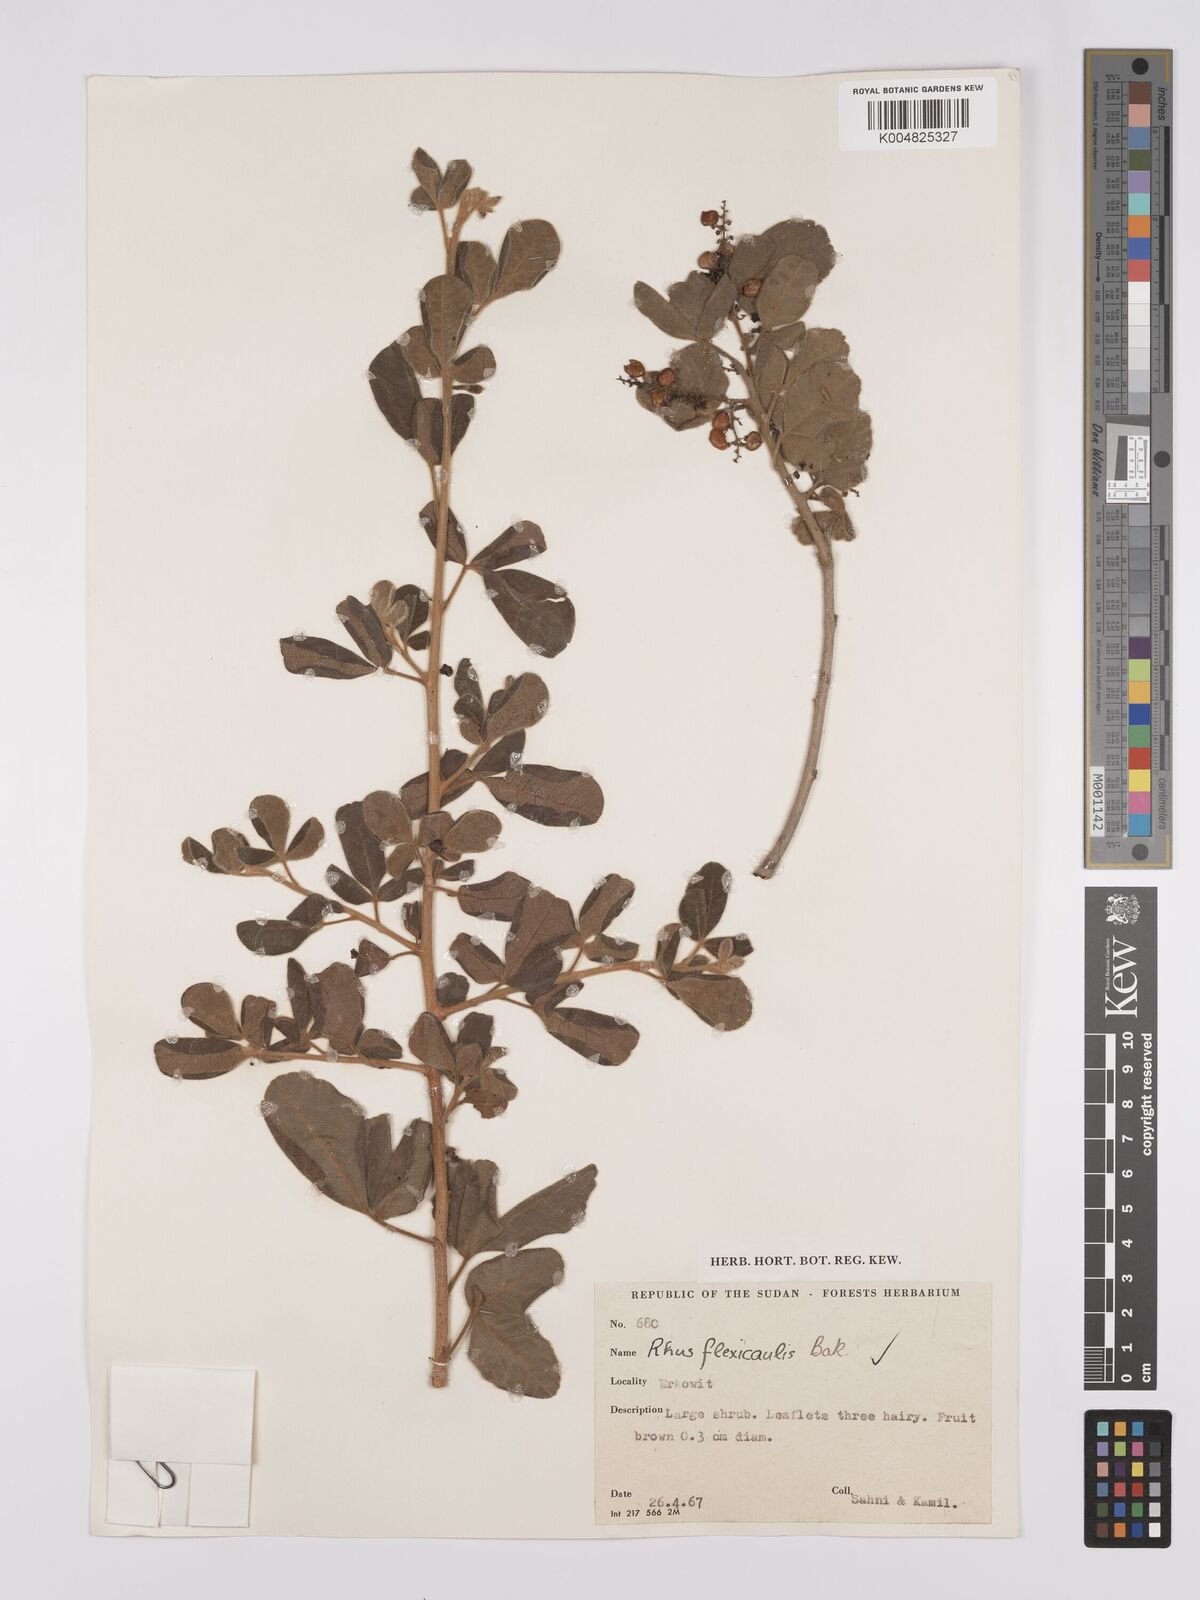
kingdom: Plantae
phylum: Tracheophyta
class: Magnoliopsida
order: Sapindales
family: Anacardiaceae
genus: Searsia
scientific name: Searsia flexicaulis
